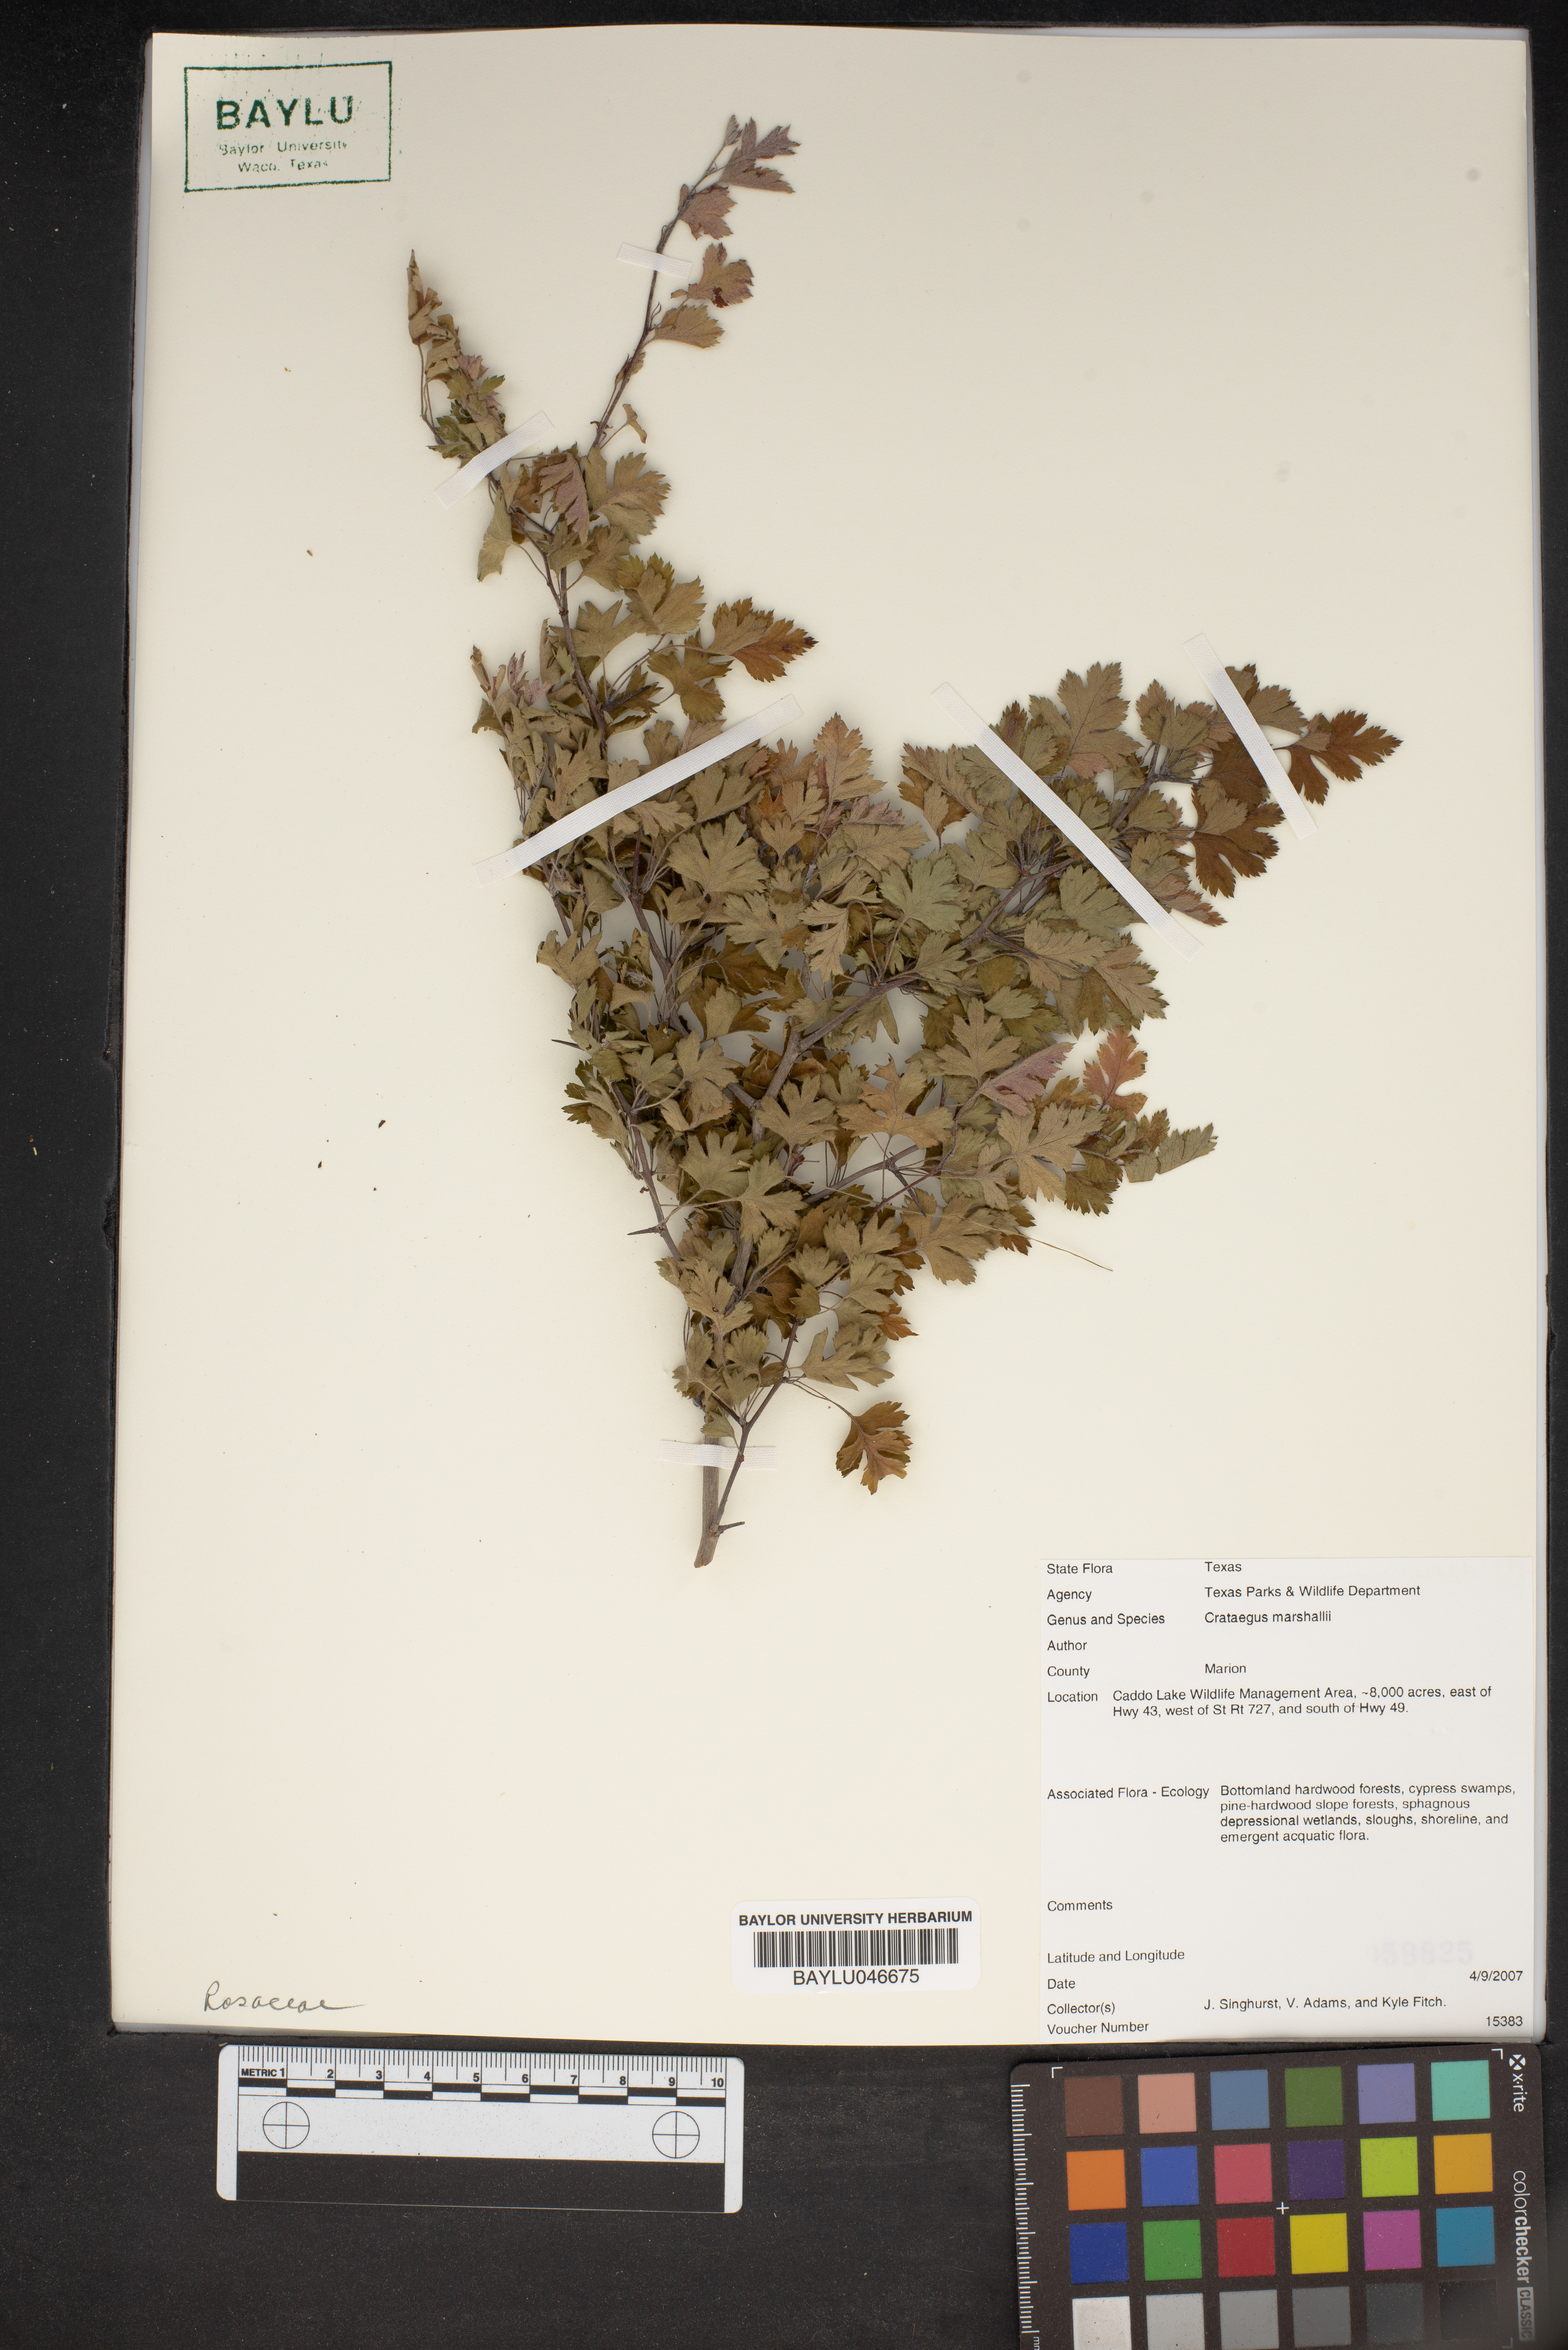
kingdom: Plantae
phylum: Tracheophyta
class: Magnoliopsida
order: Rosales
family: Rosaceae
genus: Crataegus
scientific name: Crataegus marshallii
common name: Parsley-hawthorn
